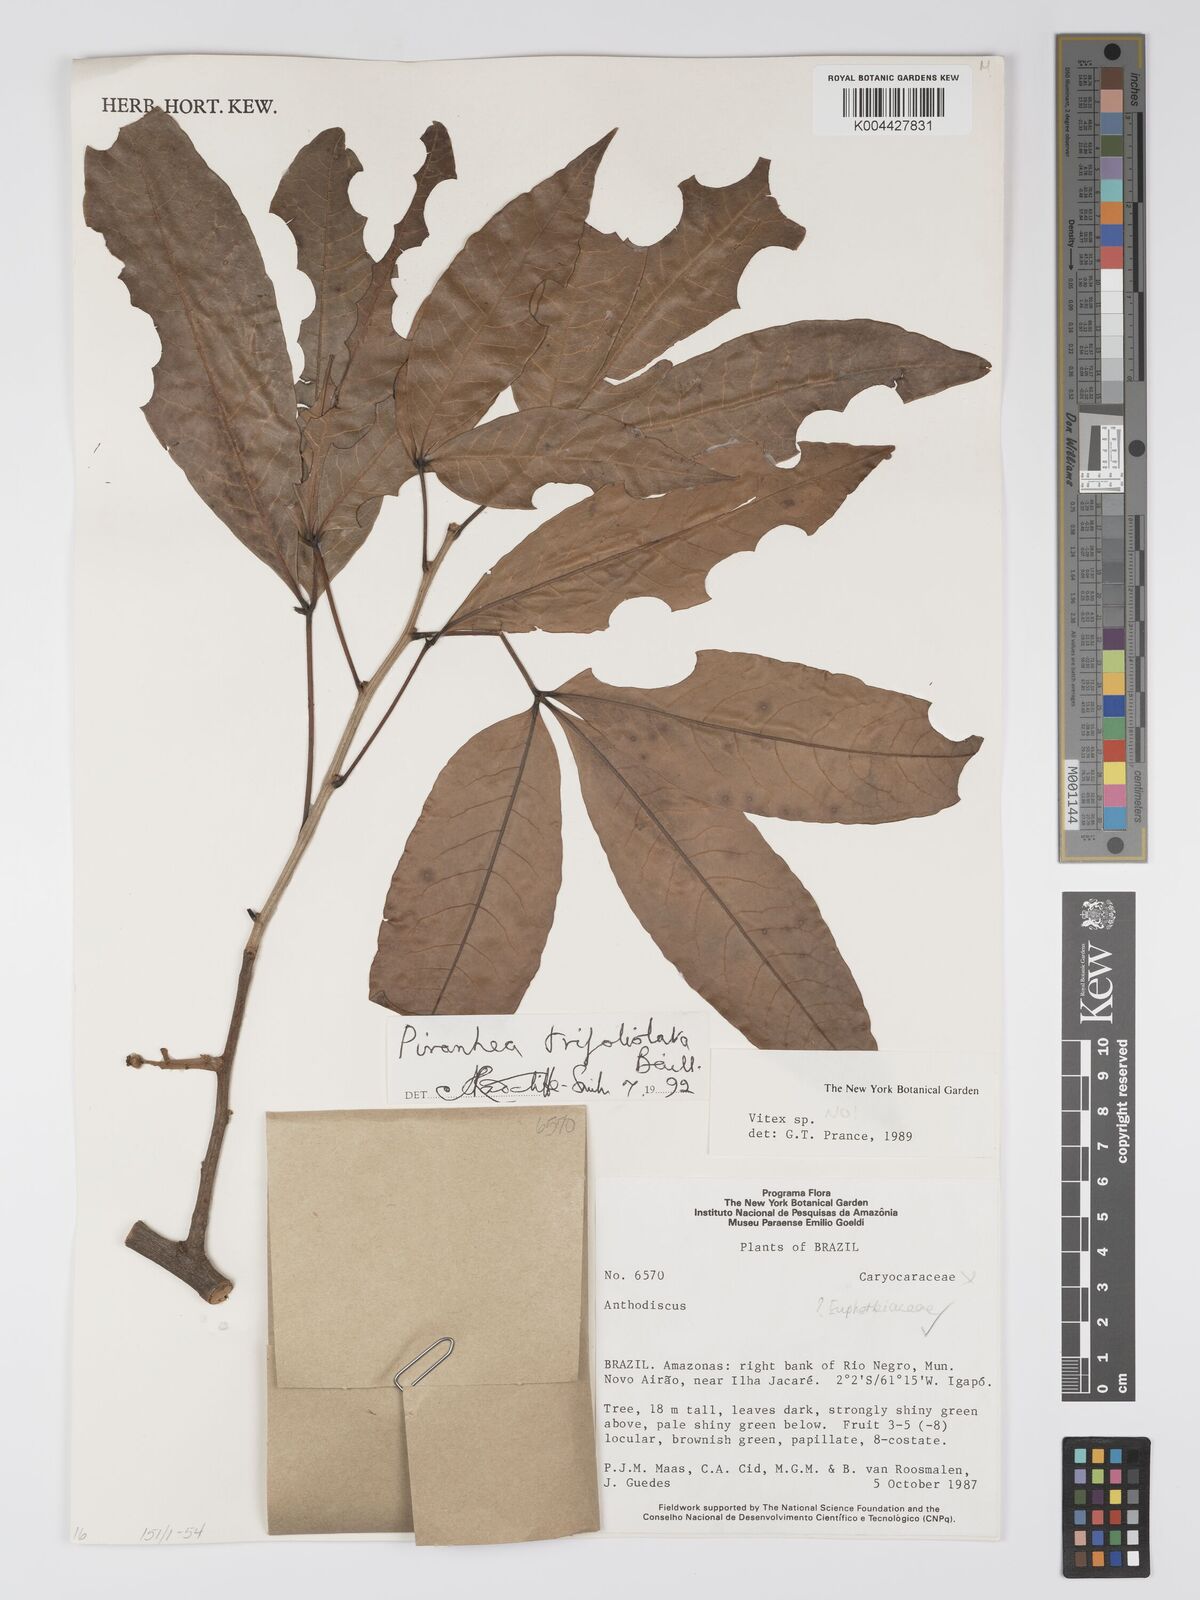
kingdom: Plantae
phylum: Tracheophyta
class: Magnoliopsida
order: Malpighiales
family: Picrodendraceae
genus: Piranhea
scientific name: Piranhea trifoliolata
